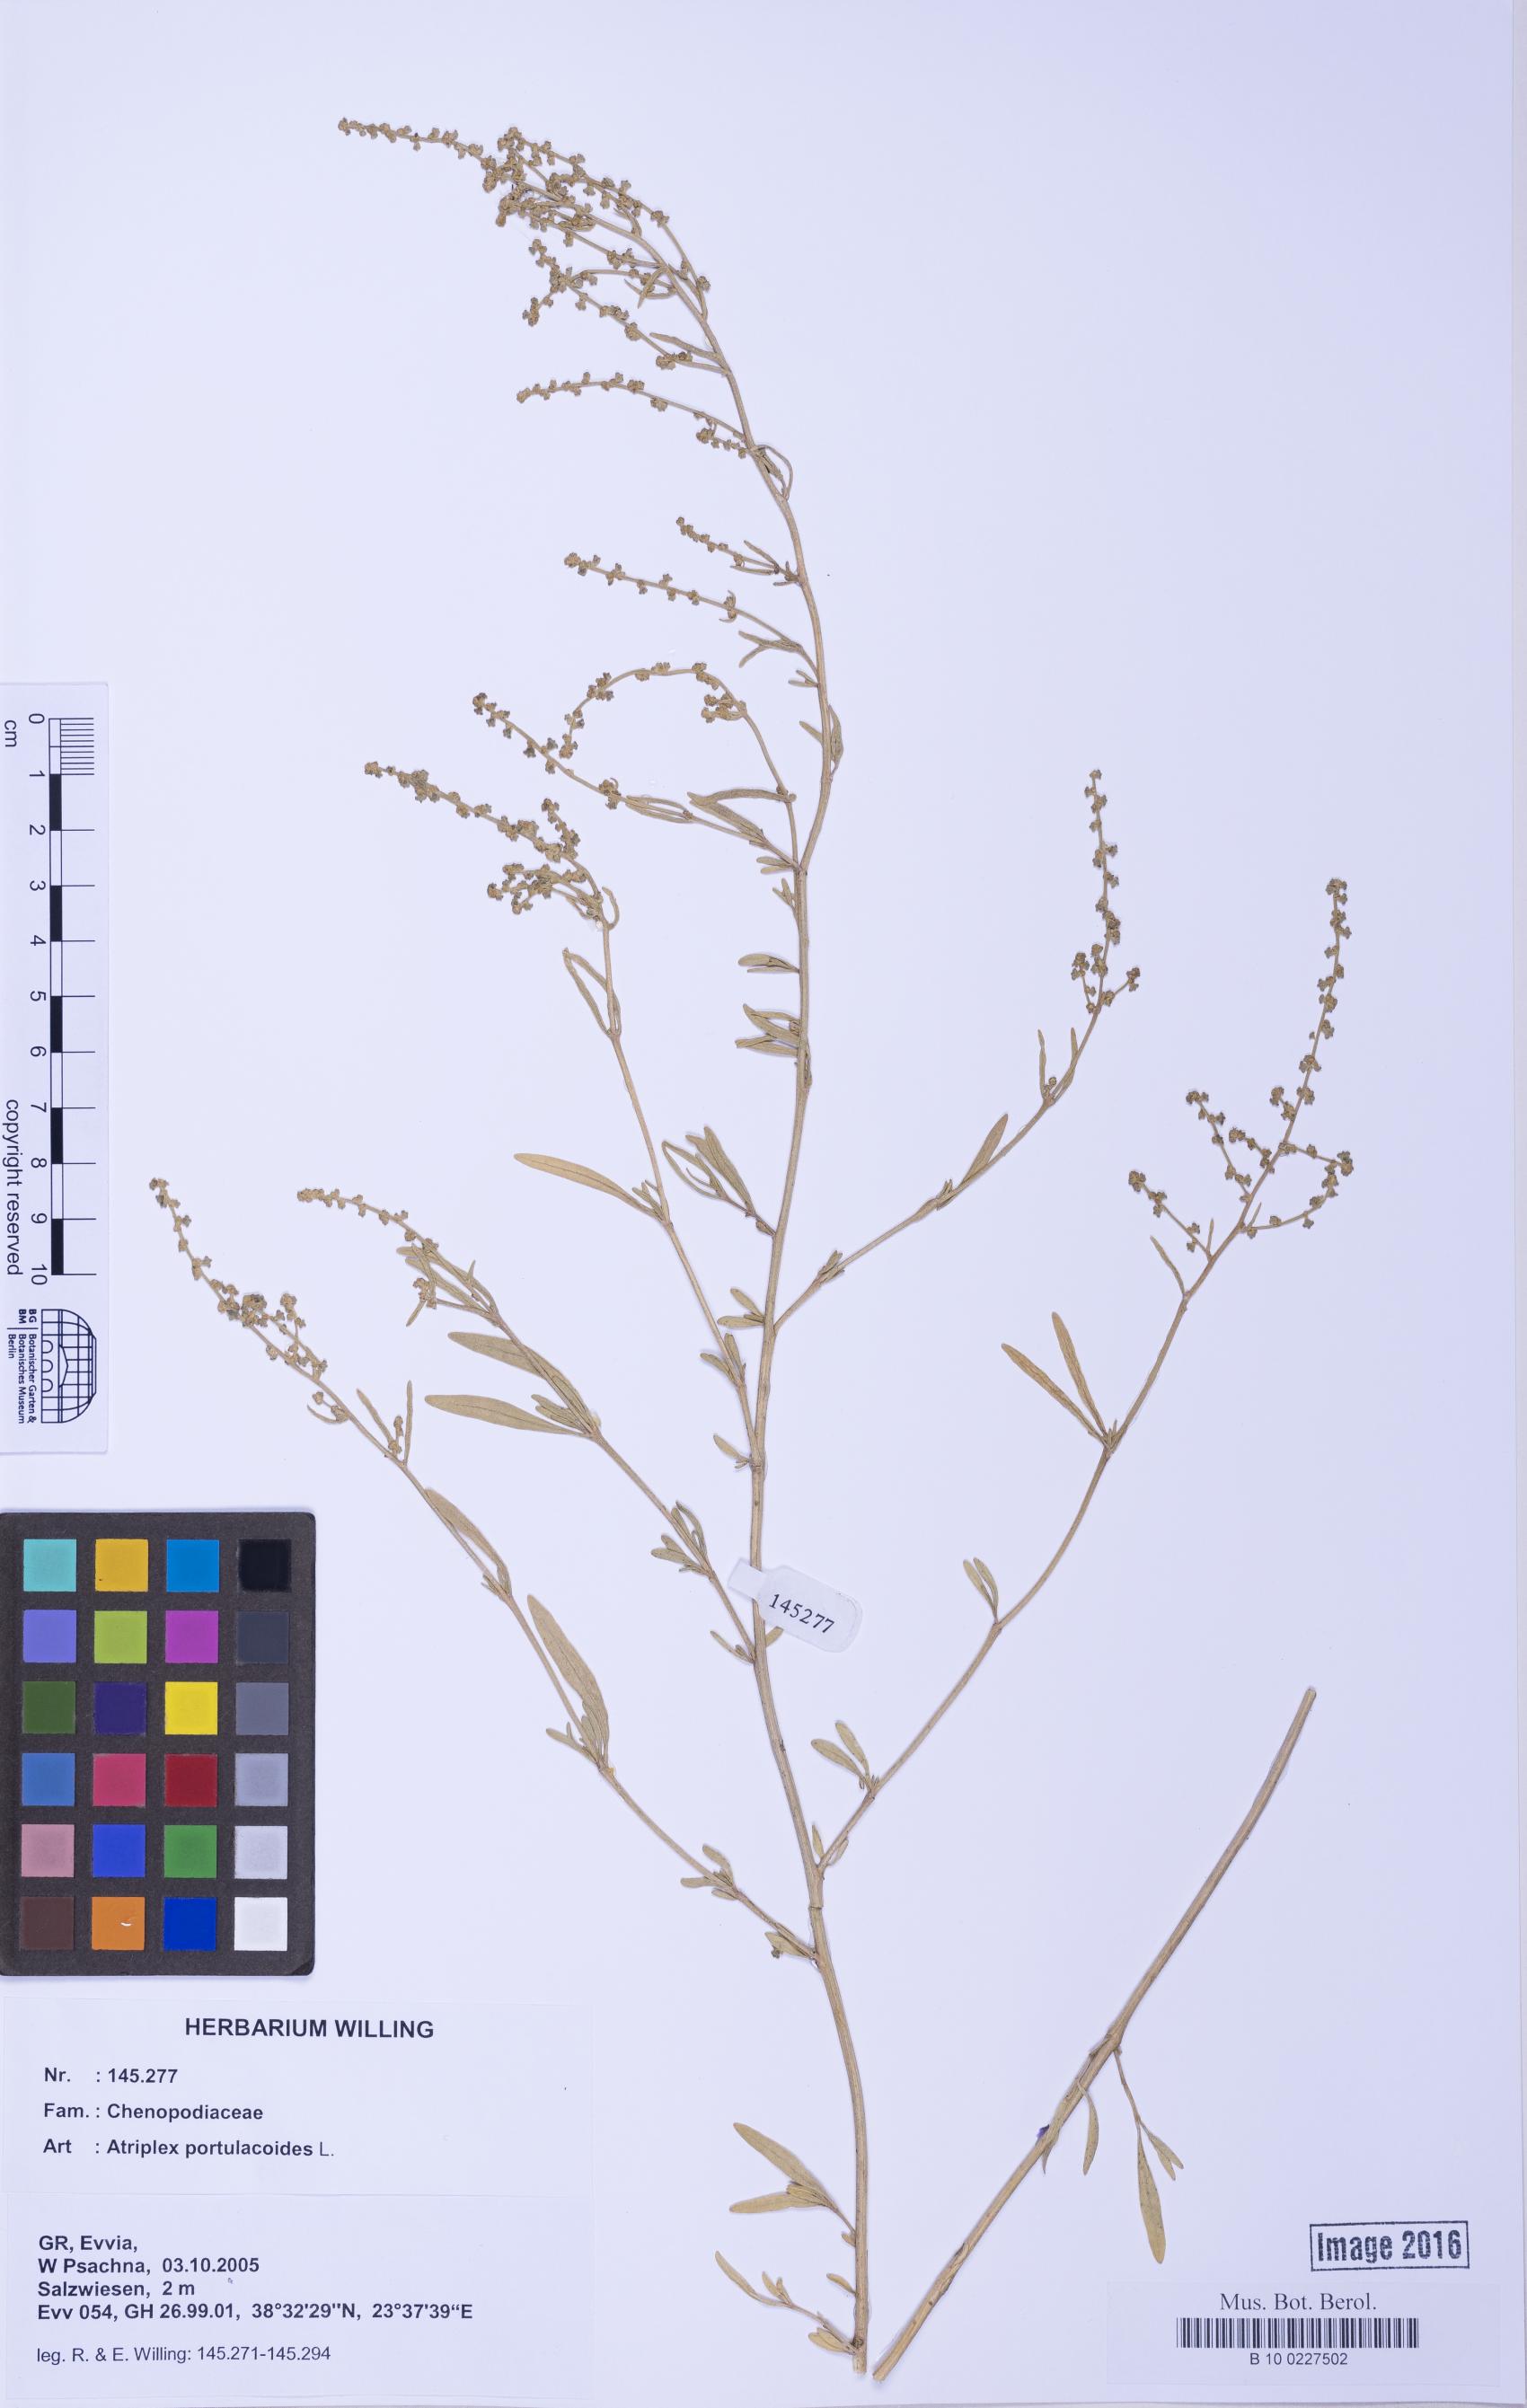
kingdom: Plantae
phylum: Tracheophyta
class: Magnoliopsida
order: Caryophyllales
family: Amaranthaceae
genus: Halimione
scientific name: Halimione portulacoides
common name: Sea-purslane
